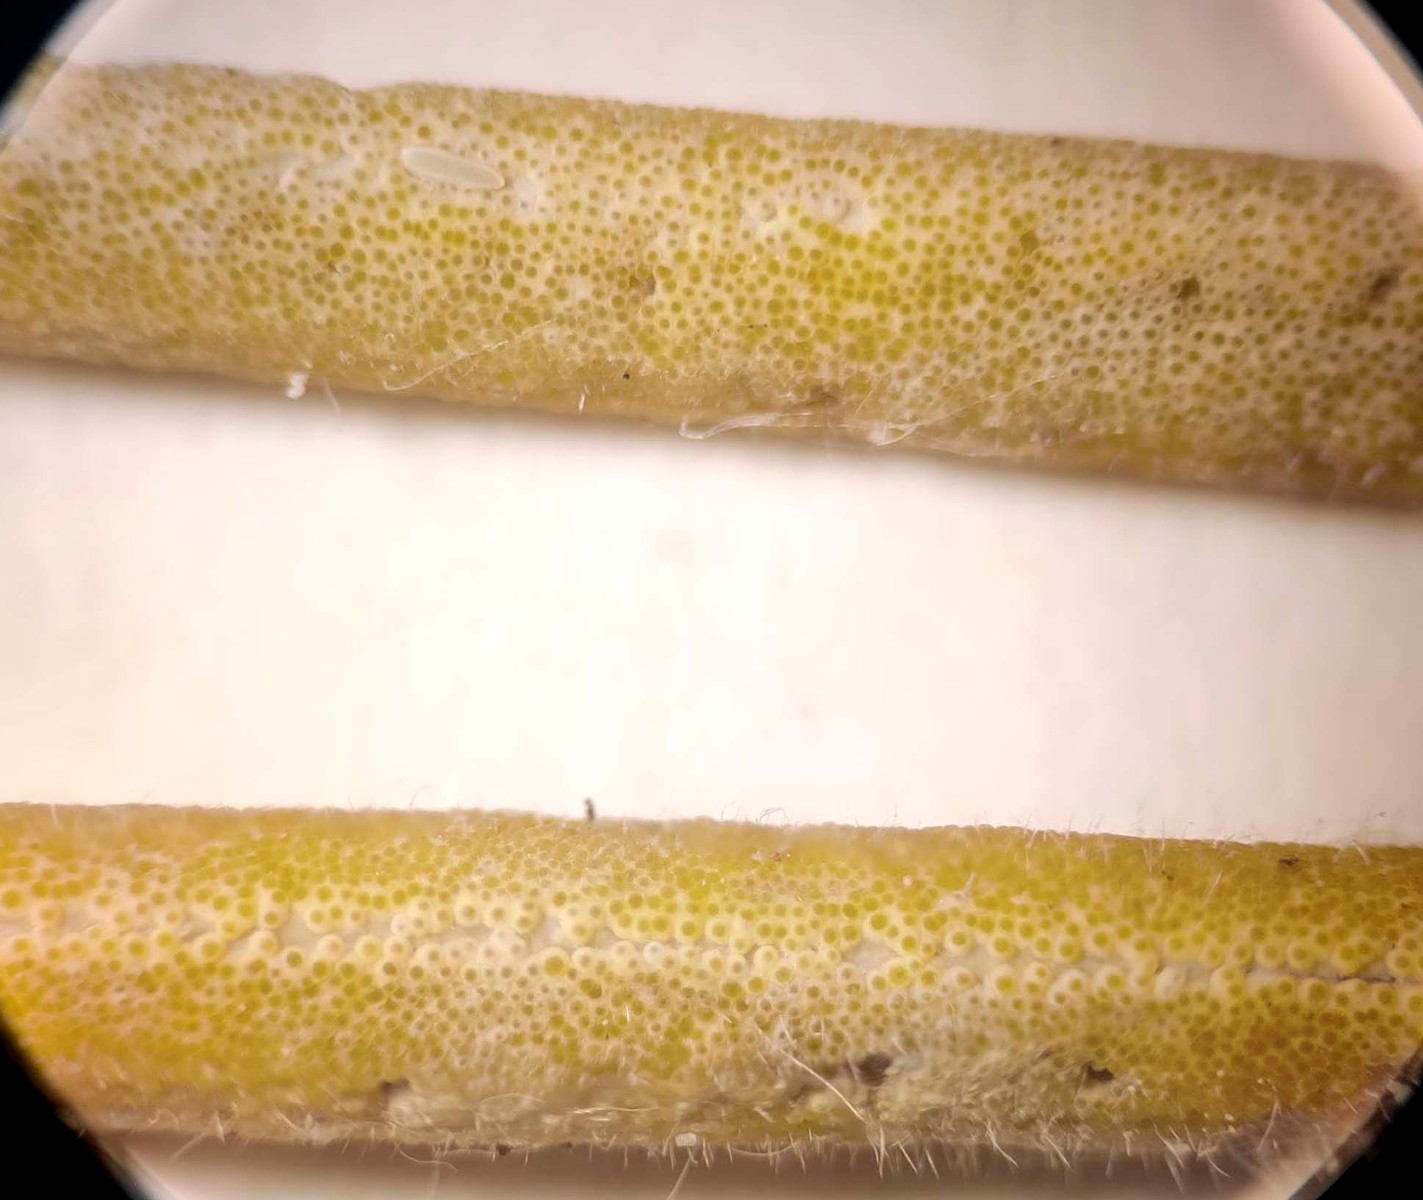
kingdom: Fungi
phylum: Ascomycota
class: Sordariomycetes
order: Hypocreales
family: Clavicipitaceae
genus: Epichloe
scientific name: Epichloe typhina
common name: almindelig kernerør
